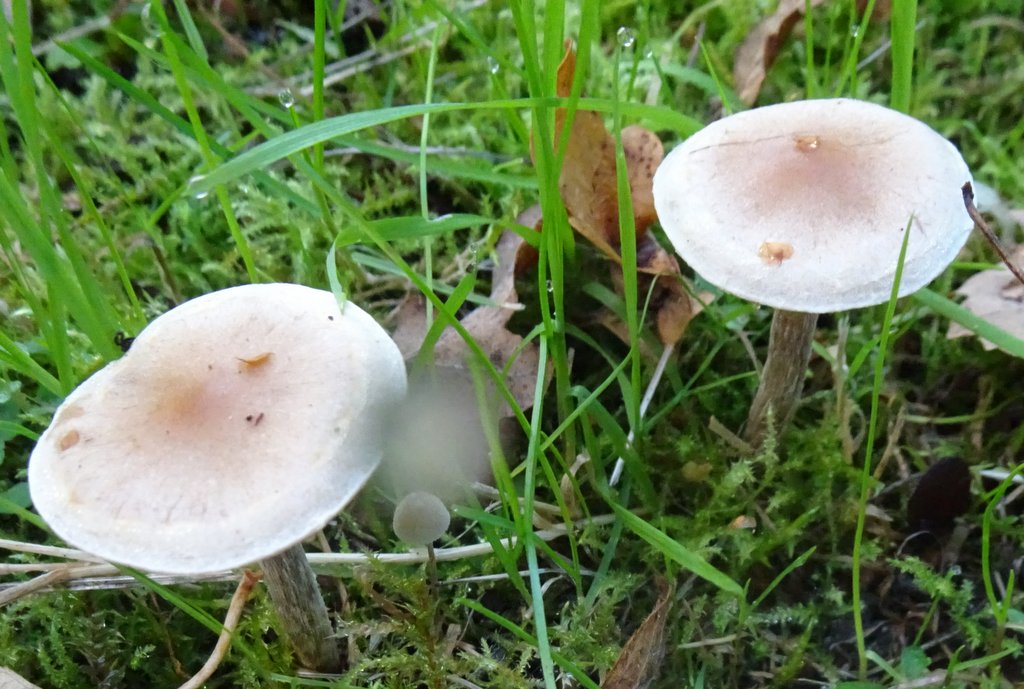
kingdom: Fungi
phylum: Basidiomycota
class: Agaricomycetes
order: Agaricales
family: Hymenogastraceae
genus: Hebeloma
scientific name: Hebeloma
